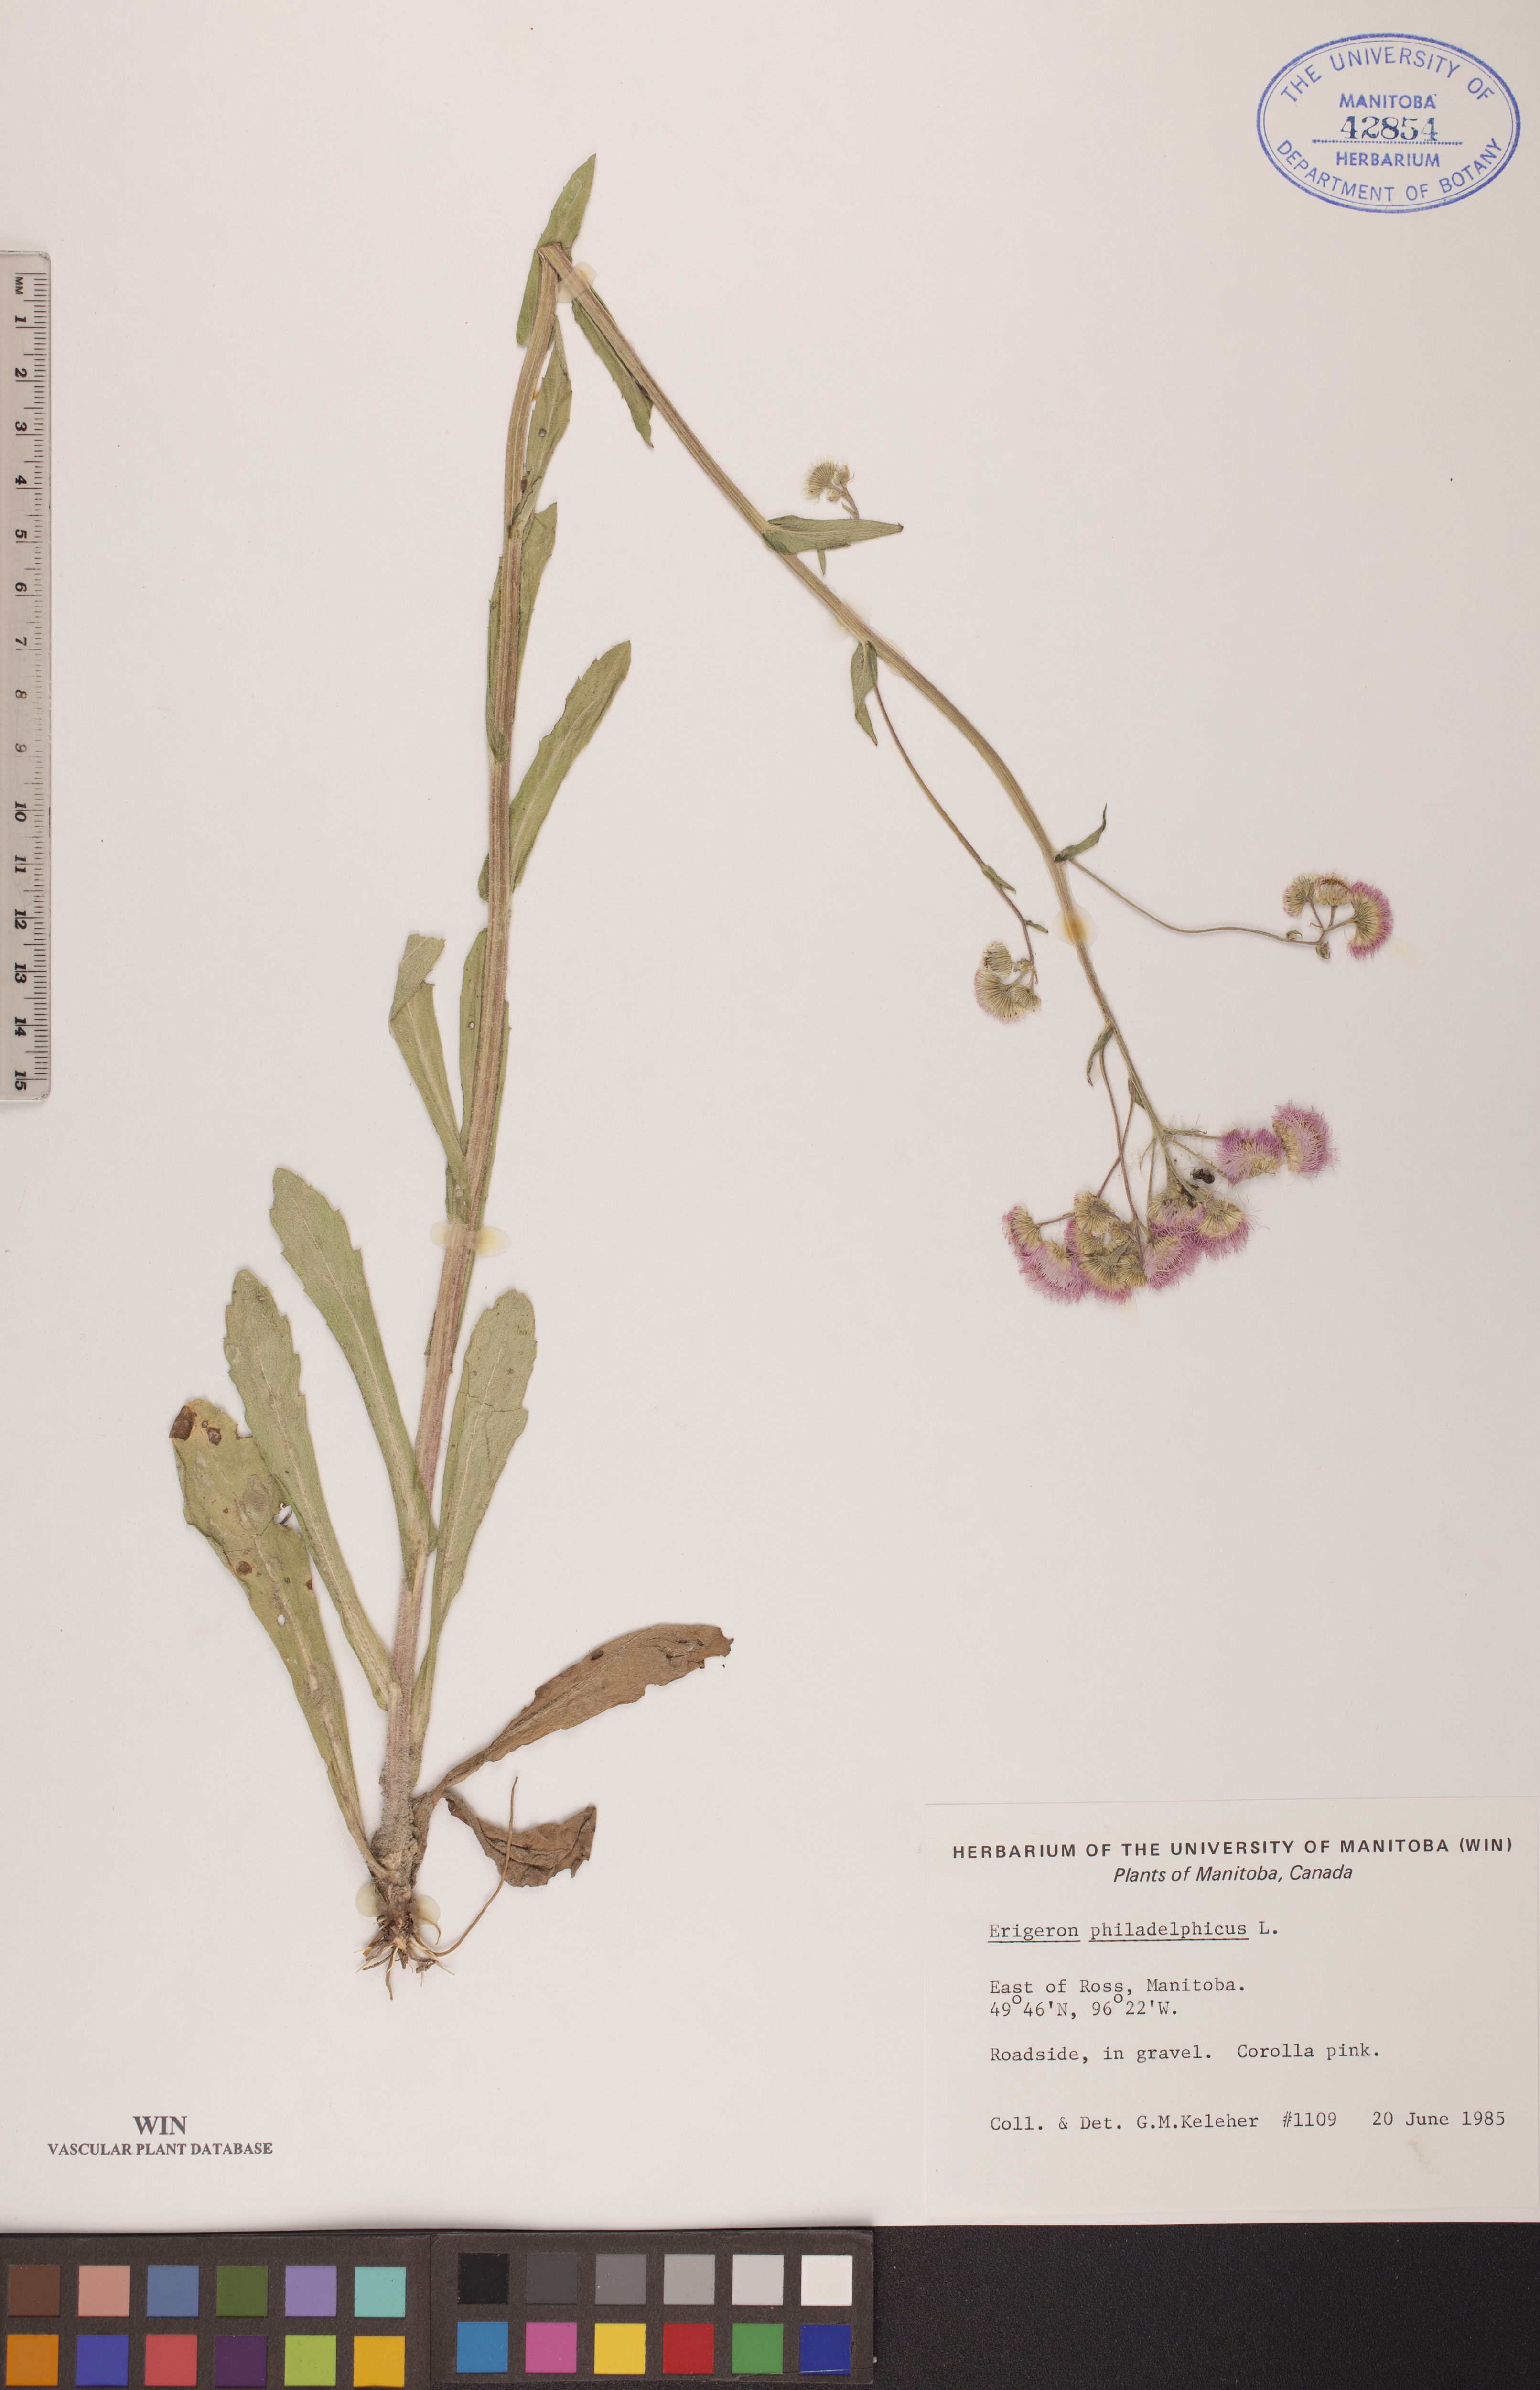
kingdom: Plantae
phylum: Tracheophyta
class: Magnoliopsida
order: Asterales
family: Asteraceae
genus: Erigeron
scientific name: Erigeron philadelphicus
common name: Robin's-plantain
